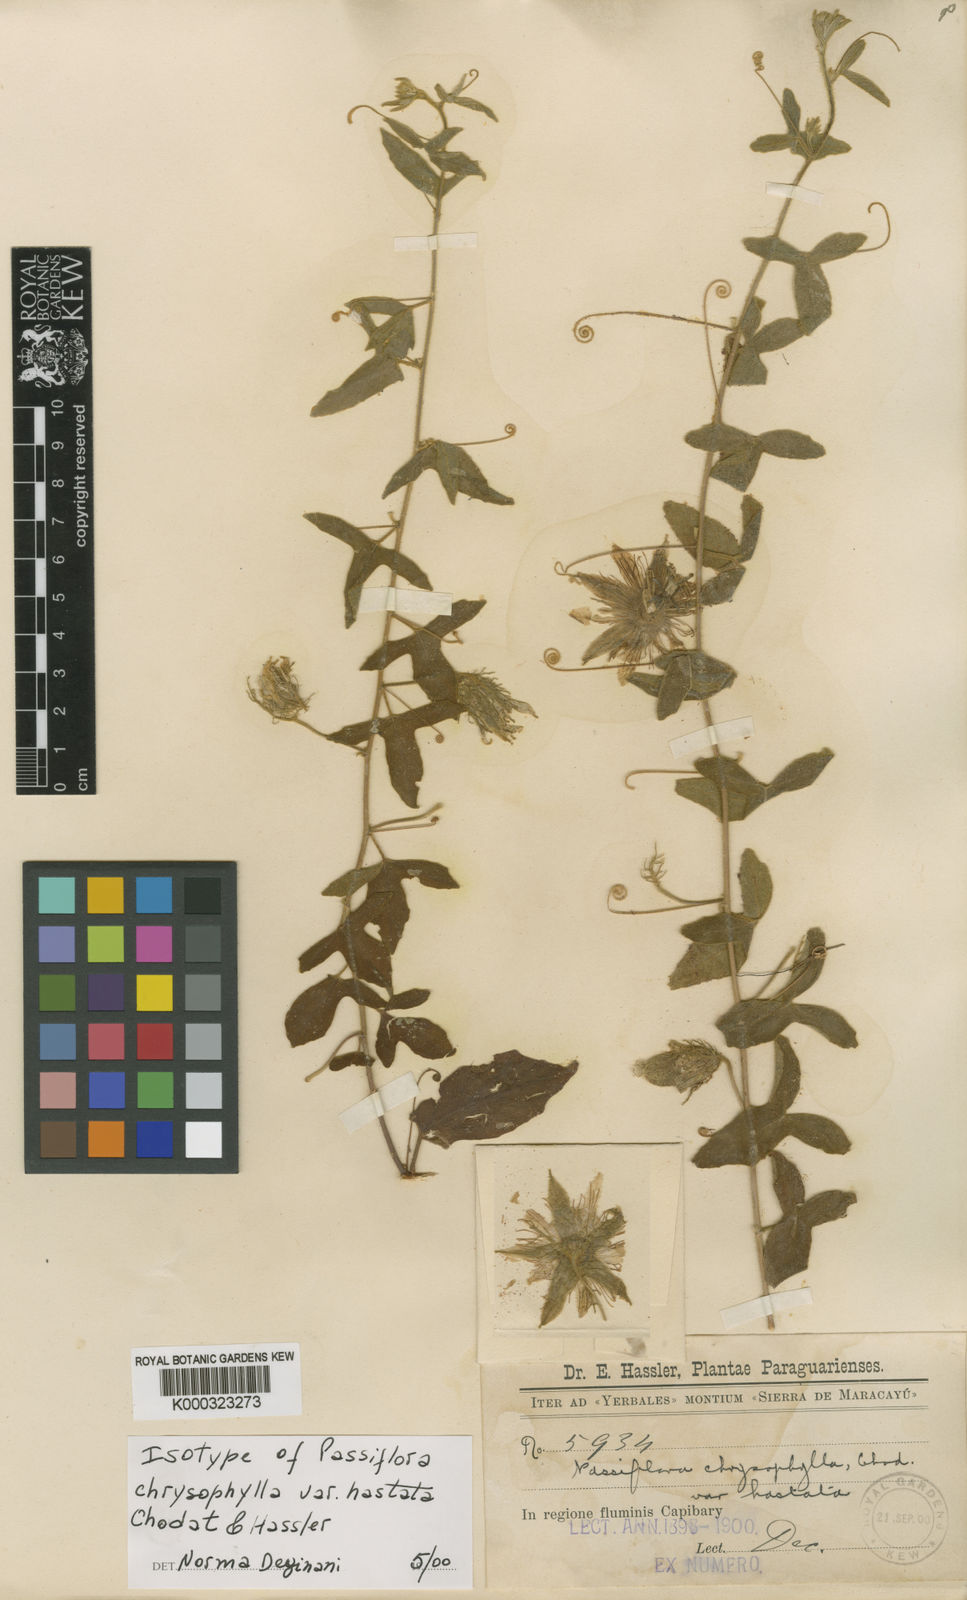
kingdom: Plantae
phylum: Tracheophyta
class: Magnoliopsida
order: Malpighiales
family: Passifloraceae
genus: Passiflora
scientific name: Passiflora chrysophylla
